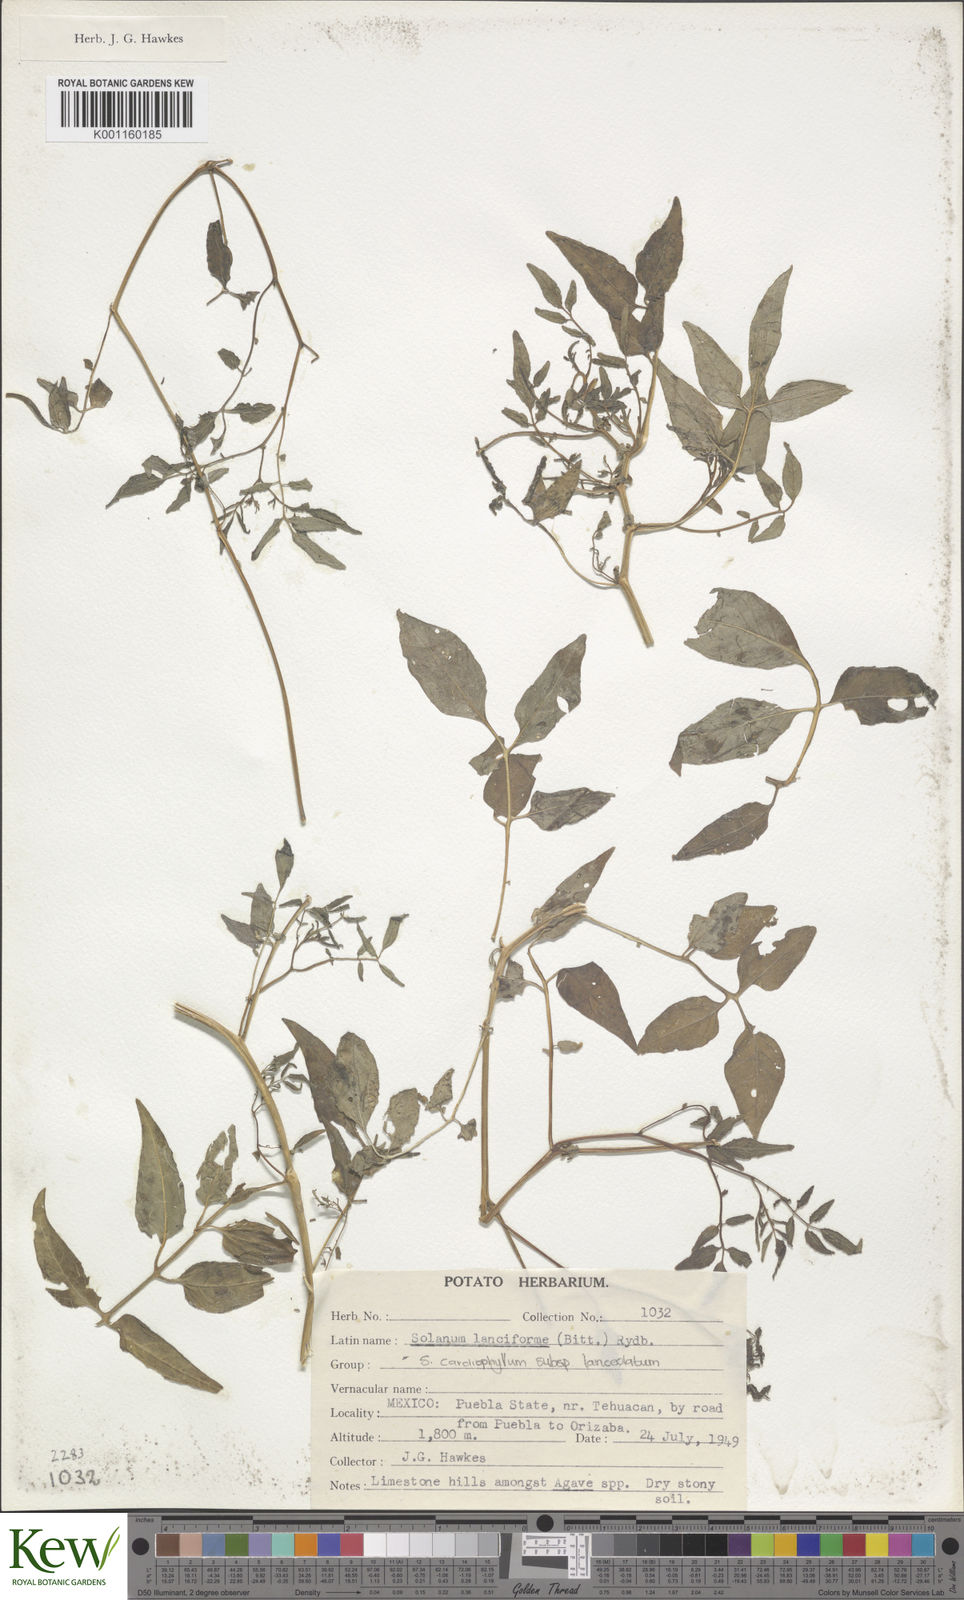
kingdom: Plantae
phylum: Tracheophyta
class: Magnoliopsida
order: Solanales
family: Solanaceae
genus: Solanum
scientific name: Solanum cardiophyllum
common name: Heartleaf horsenettle
